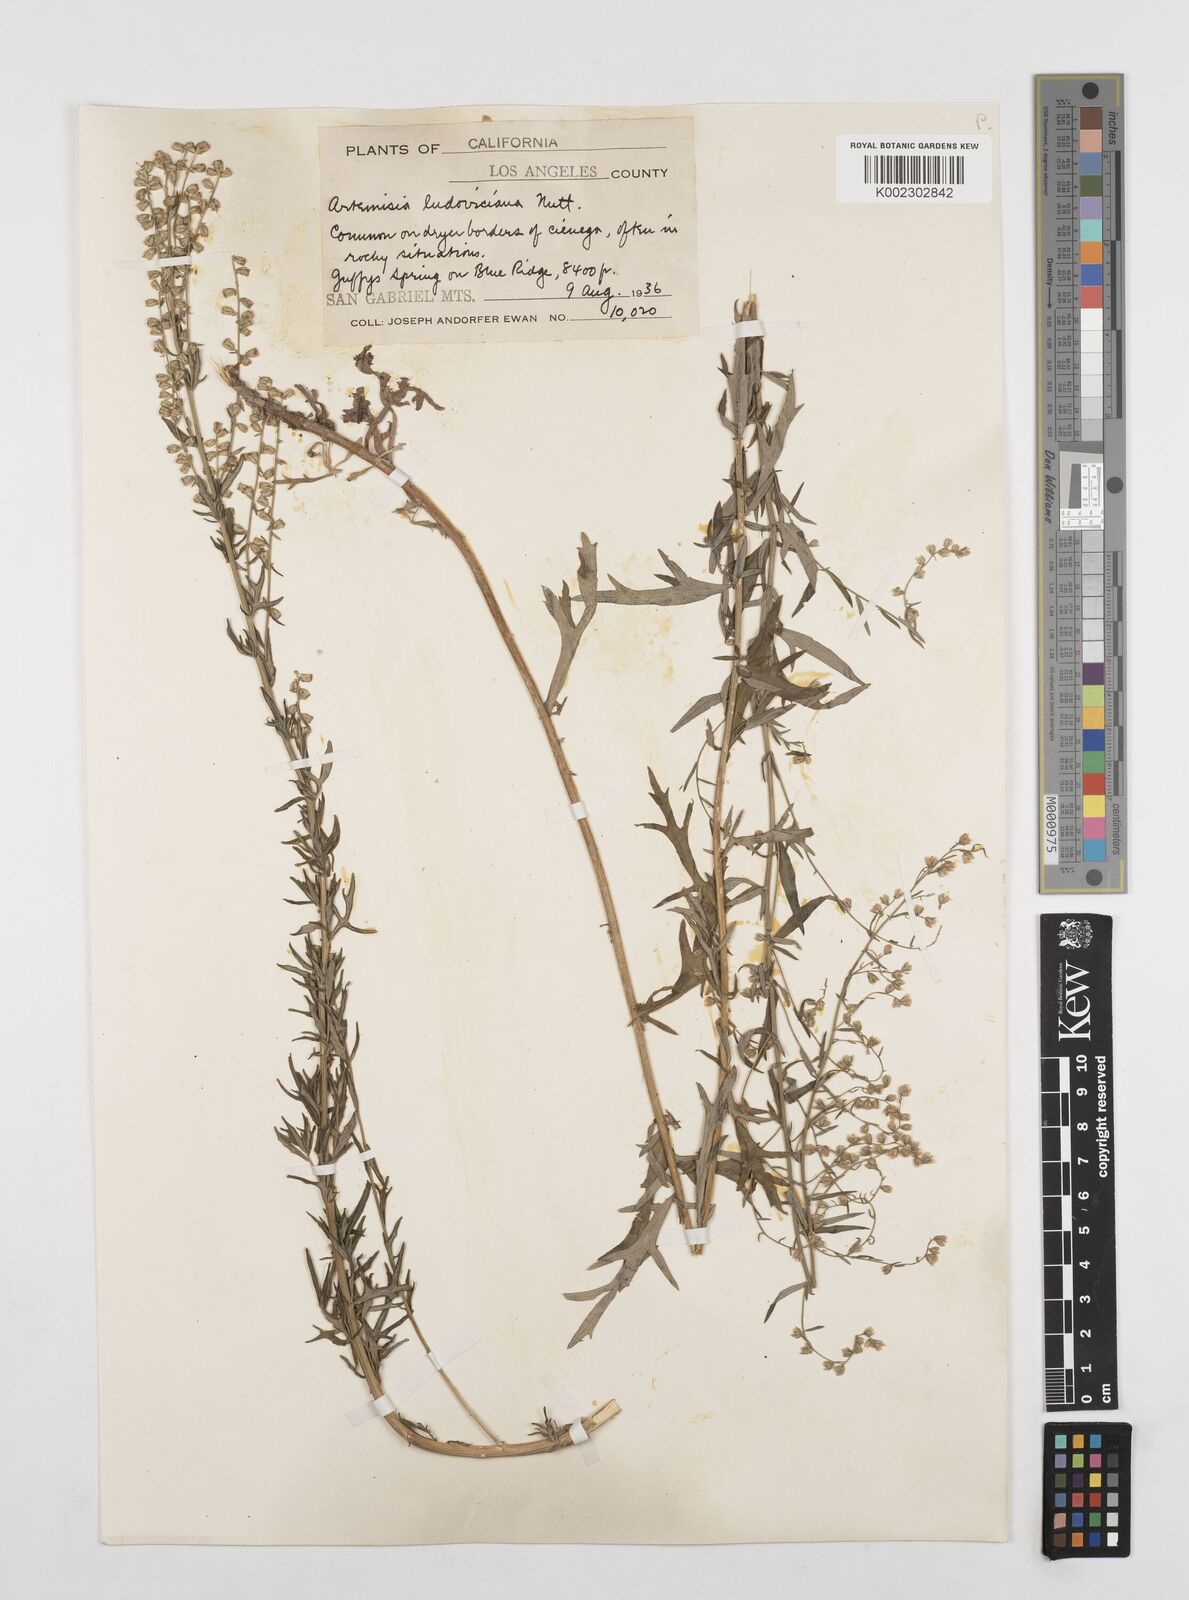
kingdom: Plantae
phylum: Tracheophyta
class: Magnoliopsida
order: Asterales
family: Asteraceae
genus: Artemisia
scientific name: Artemisia ludoviciana
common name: Western mugwort
